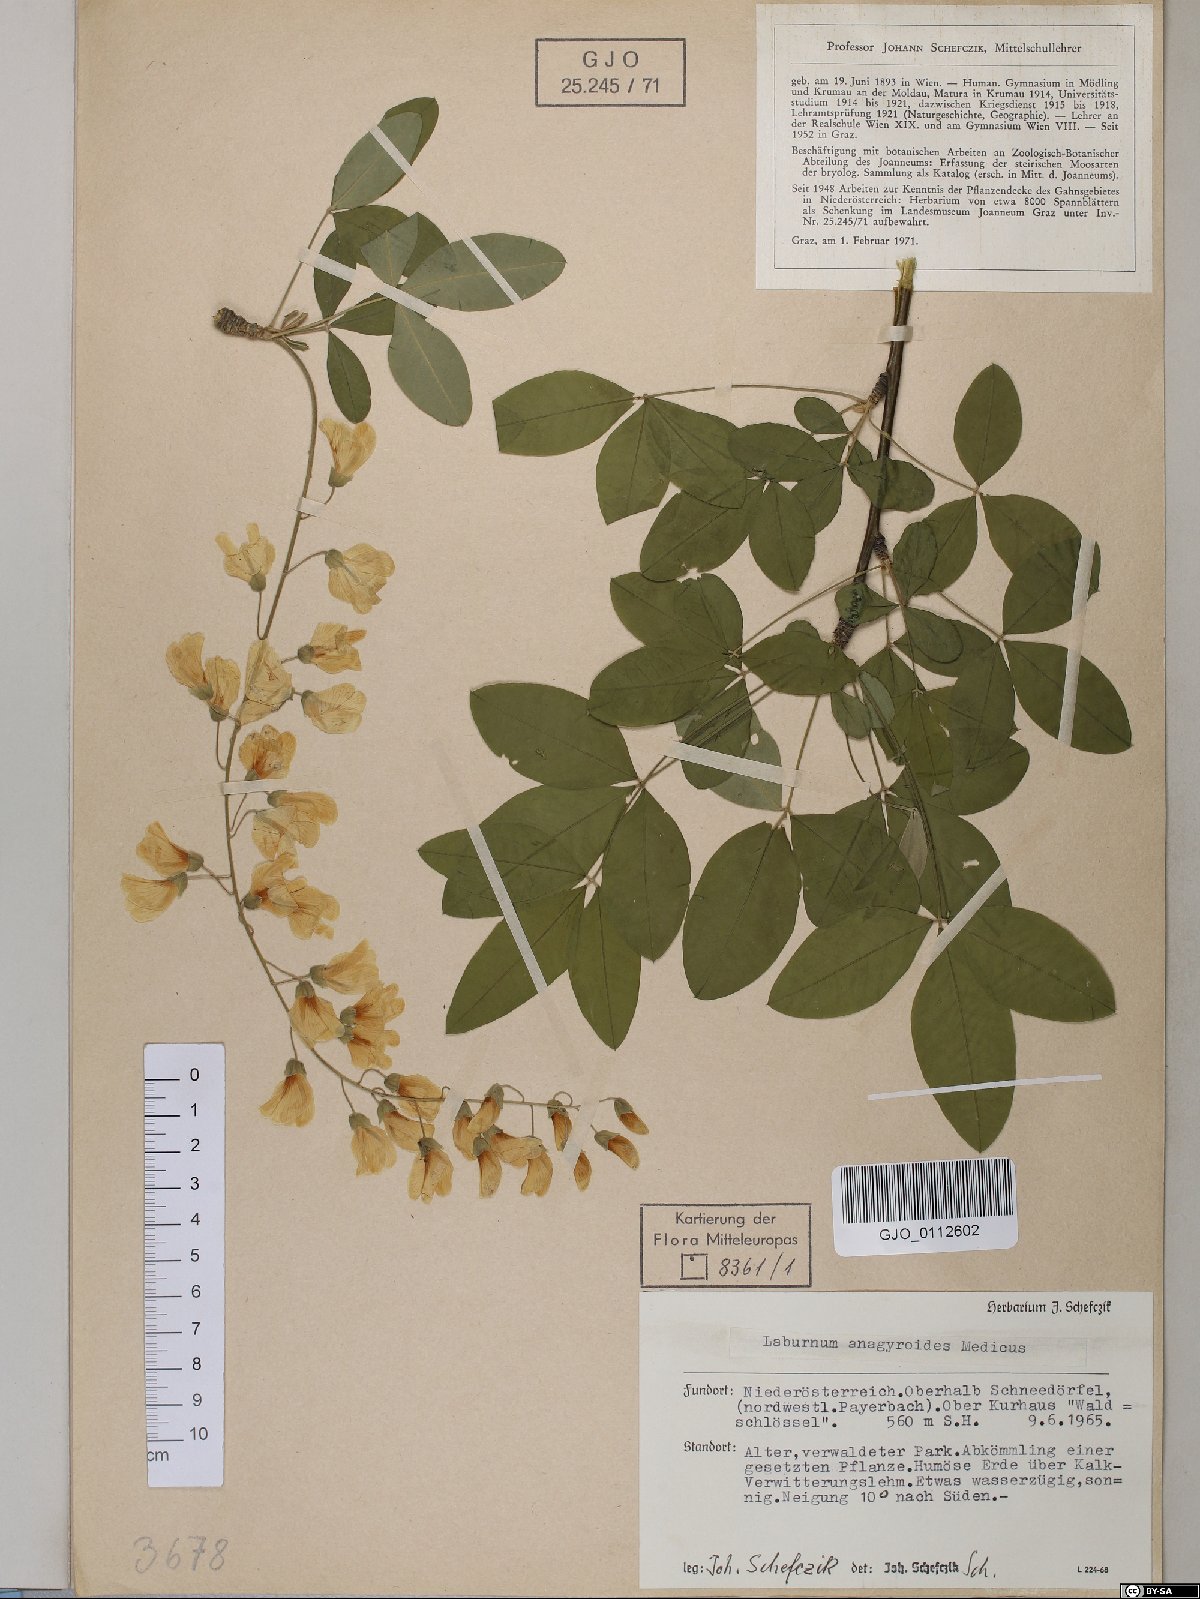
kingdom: Plantae
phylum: Tracheophyta
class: Magnoliopsida
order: Fabales
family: Fabaceae
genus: Laburnum
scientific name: Laburnum anagyroides
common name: Laburnum
